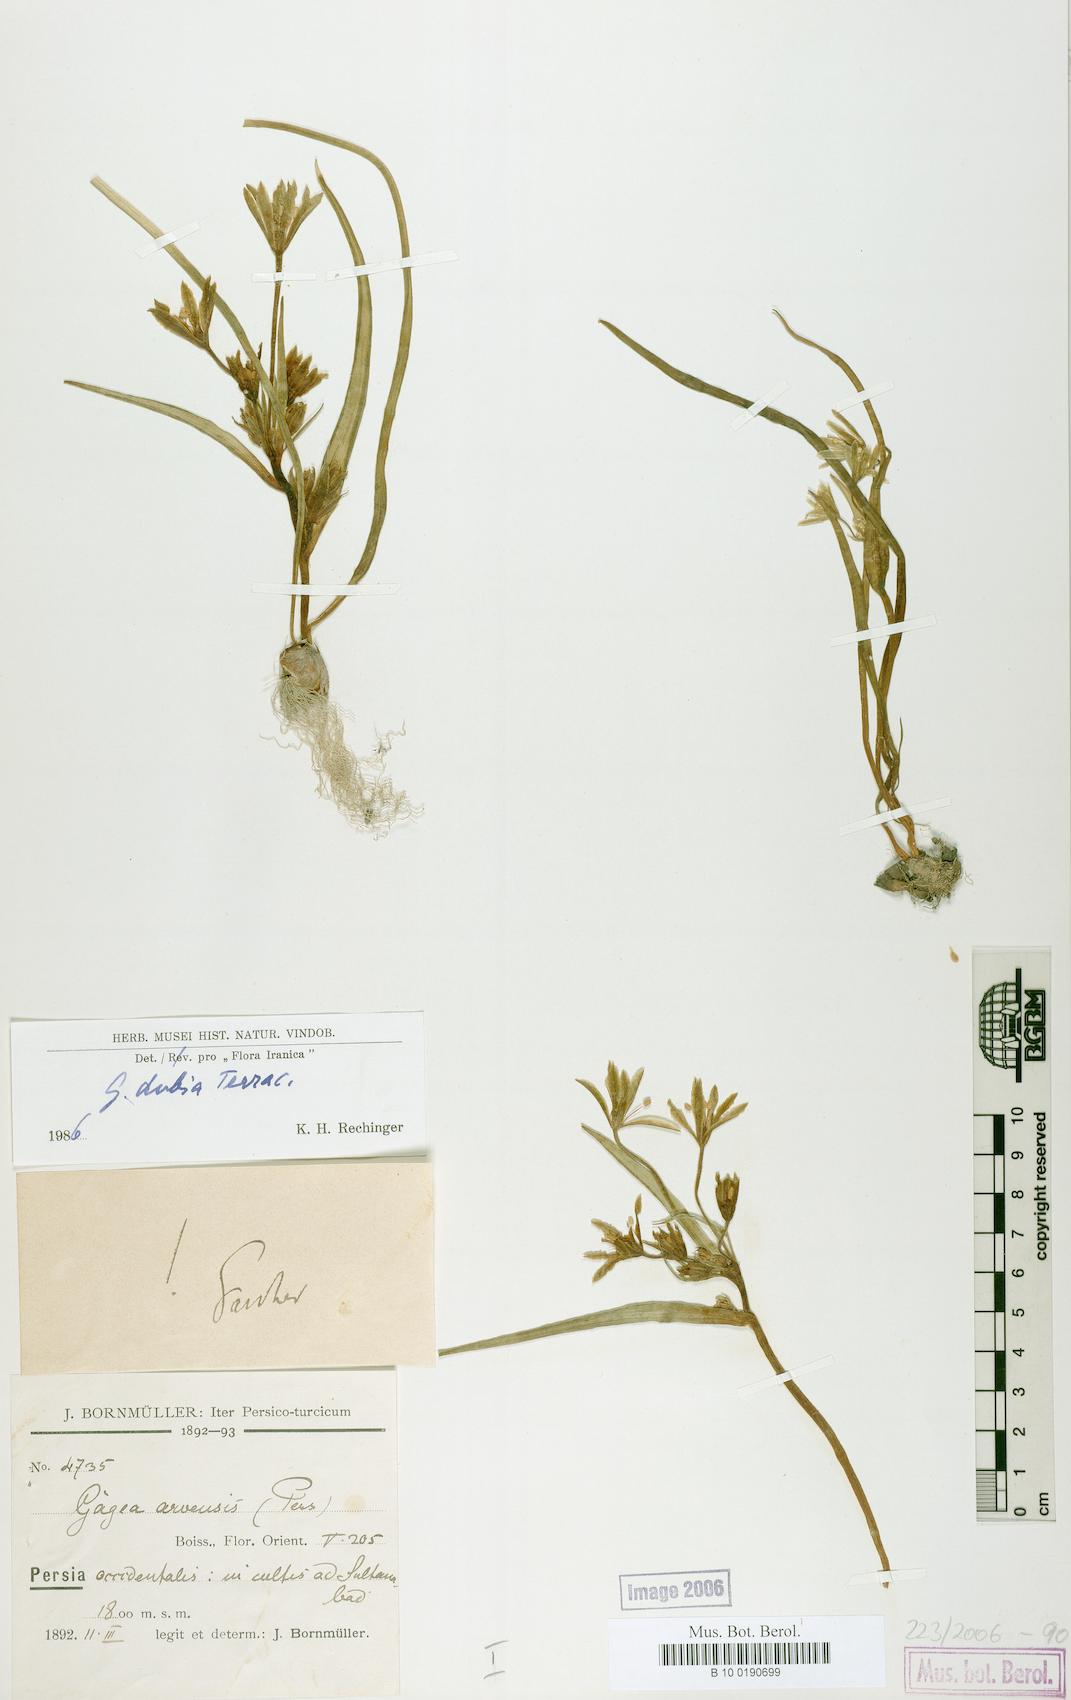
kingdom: Plantae
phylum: Tracheophyta
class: Liliopsida
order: Liliales
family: Liliaceae
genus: Gagea
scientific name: Gagea dubia
